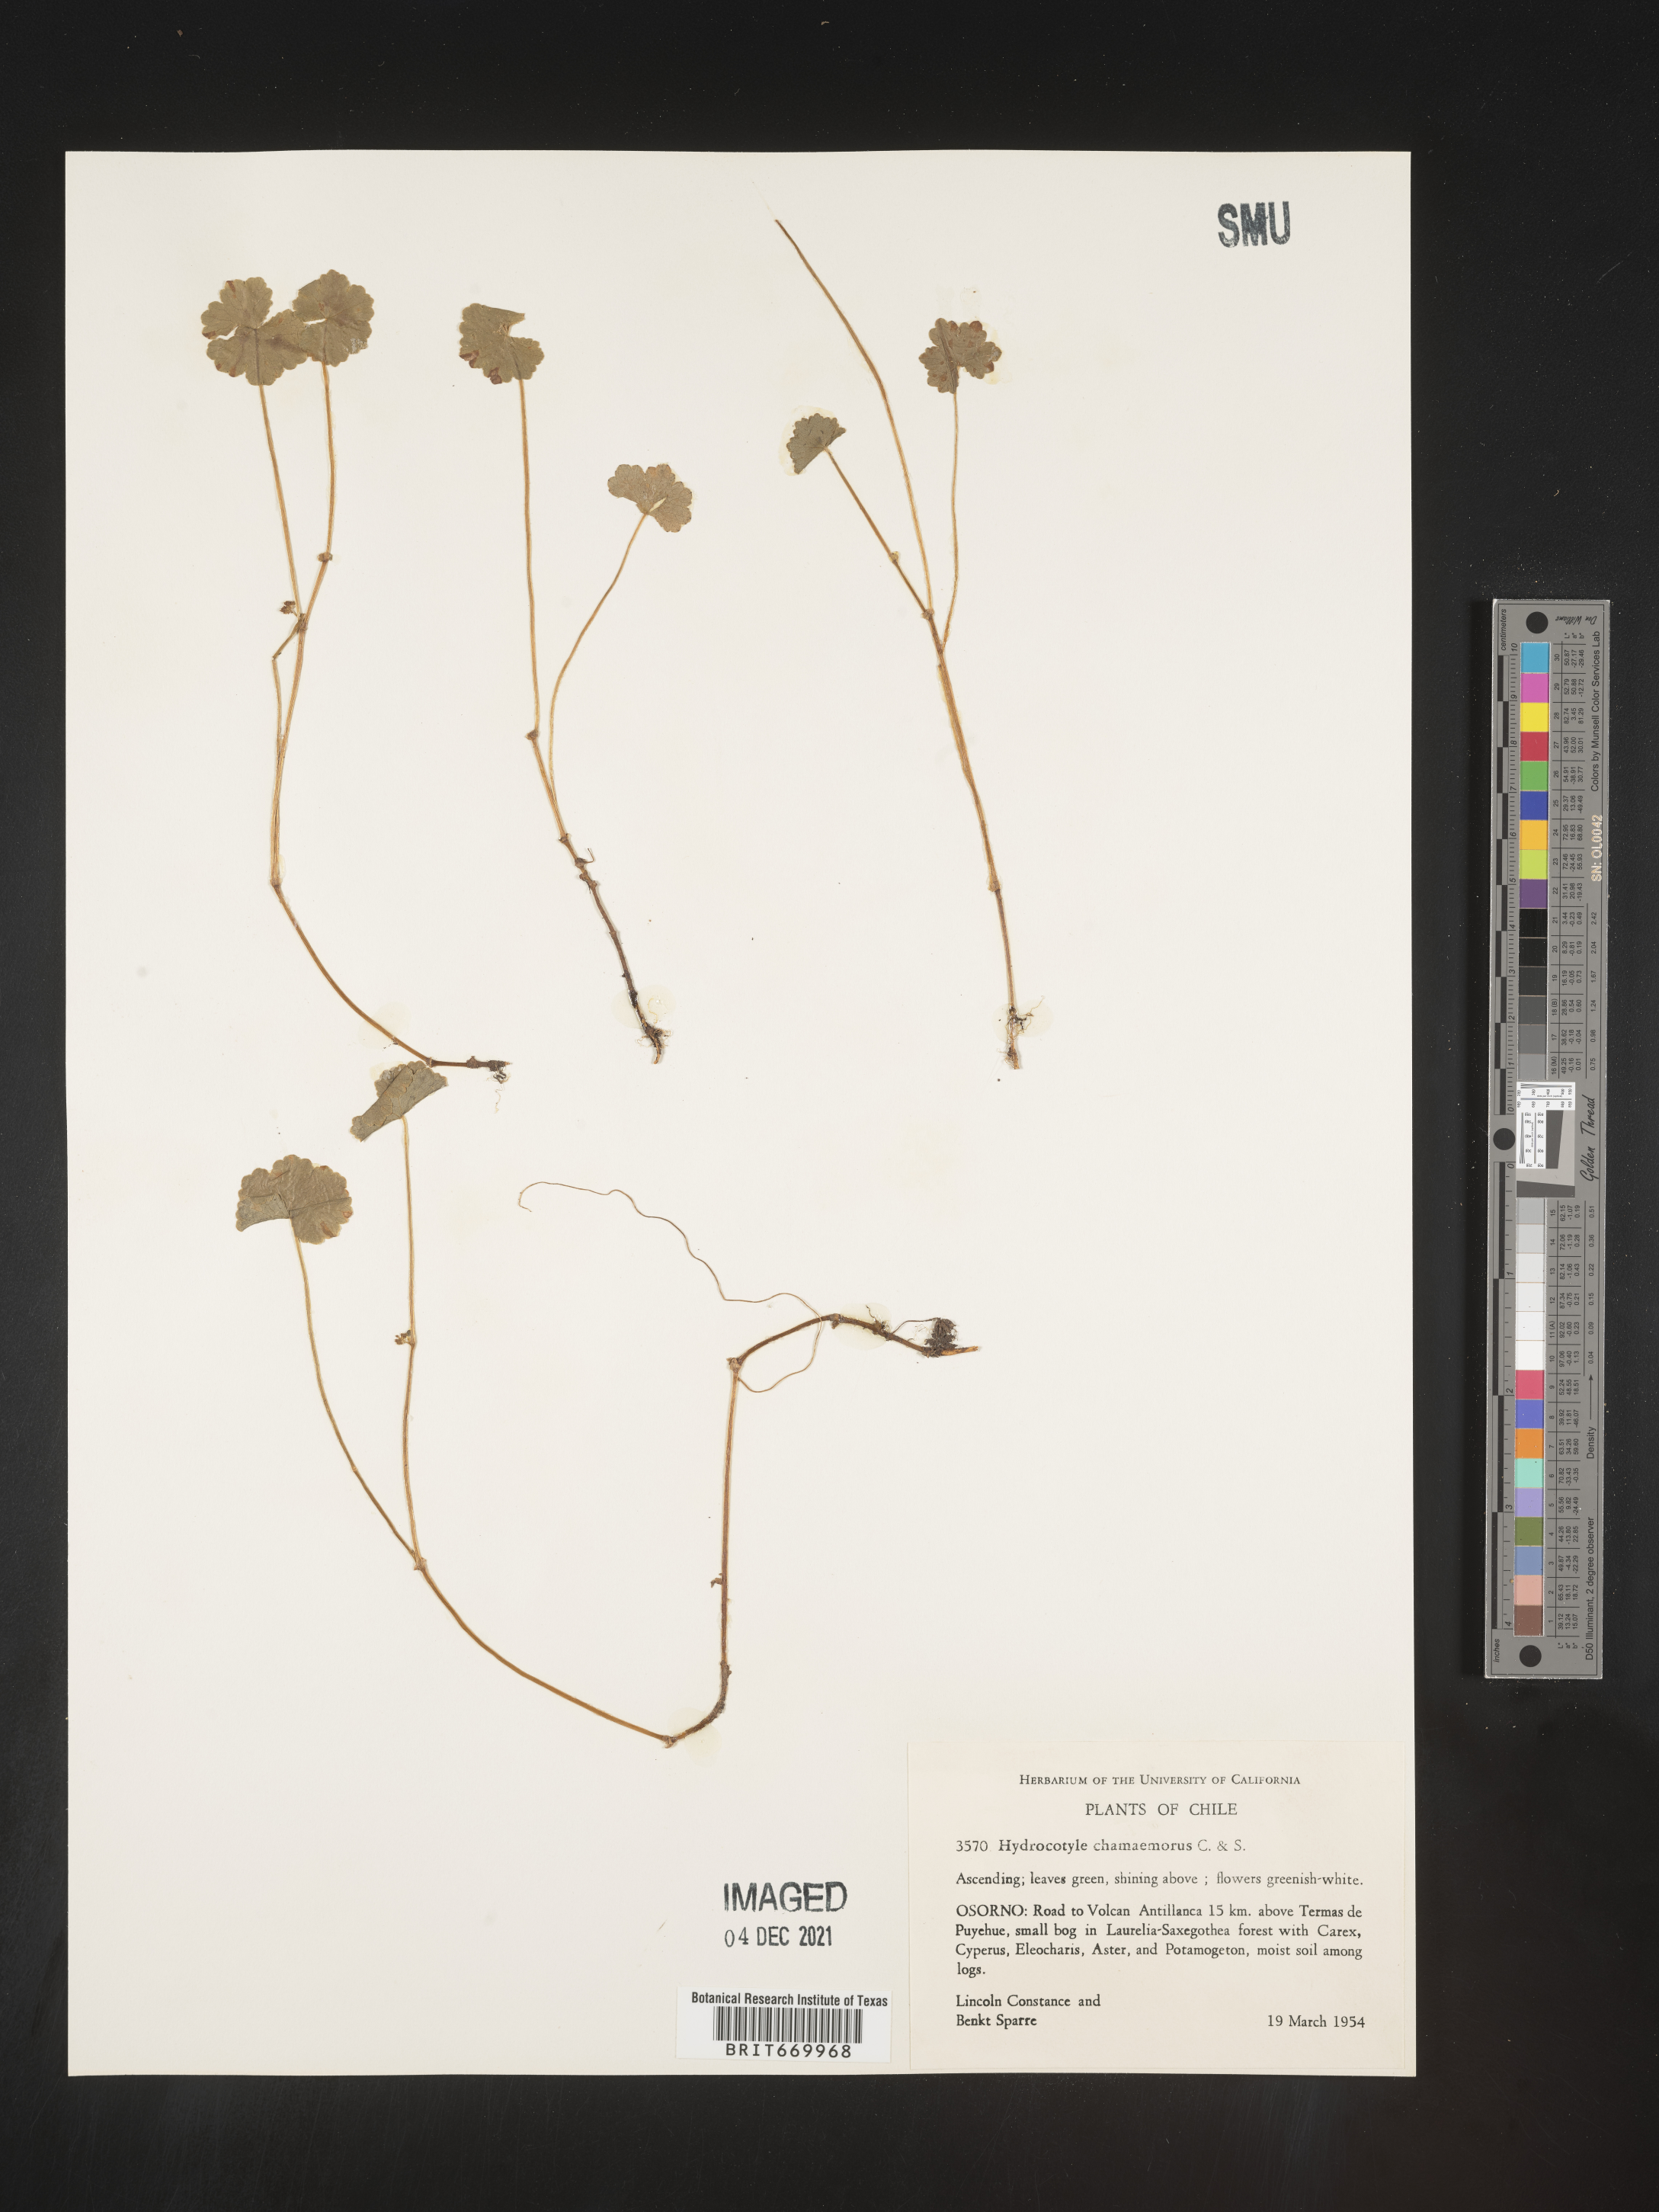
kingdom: Plantae
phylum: Tracheophyta
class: Magnoliopsida
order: Apiales
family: Araliaceae
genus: Hydrocotyle
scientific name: Hydrocotyle
